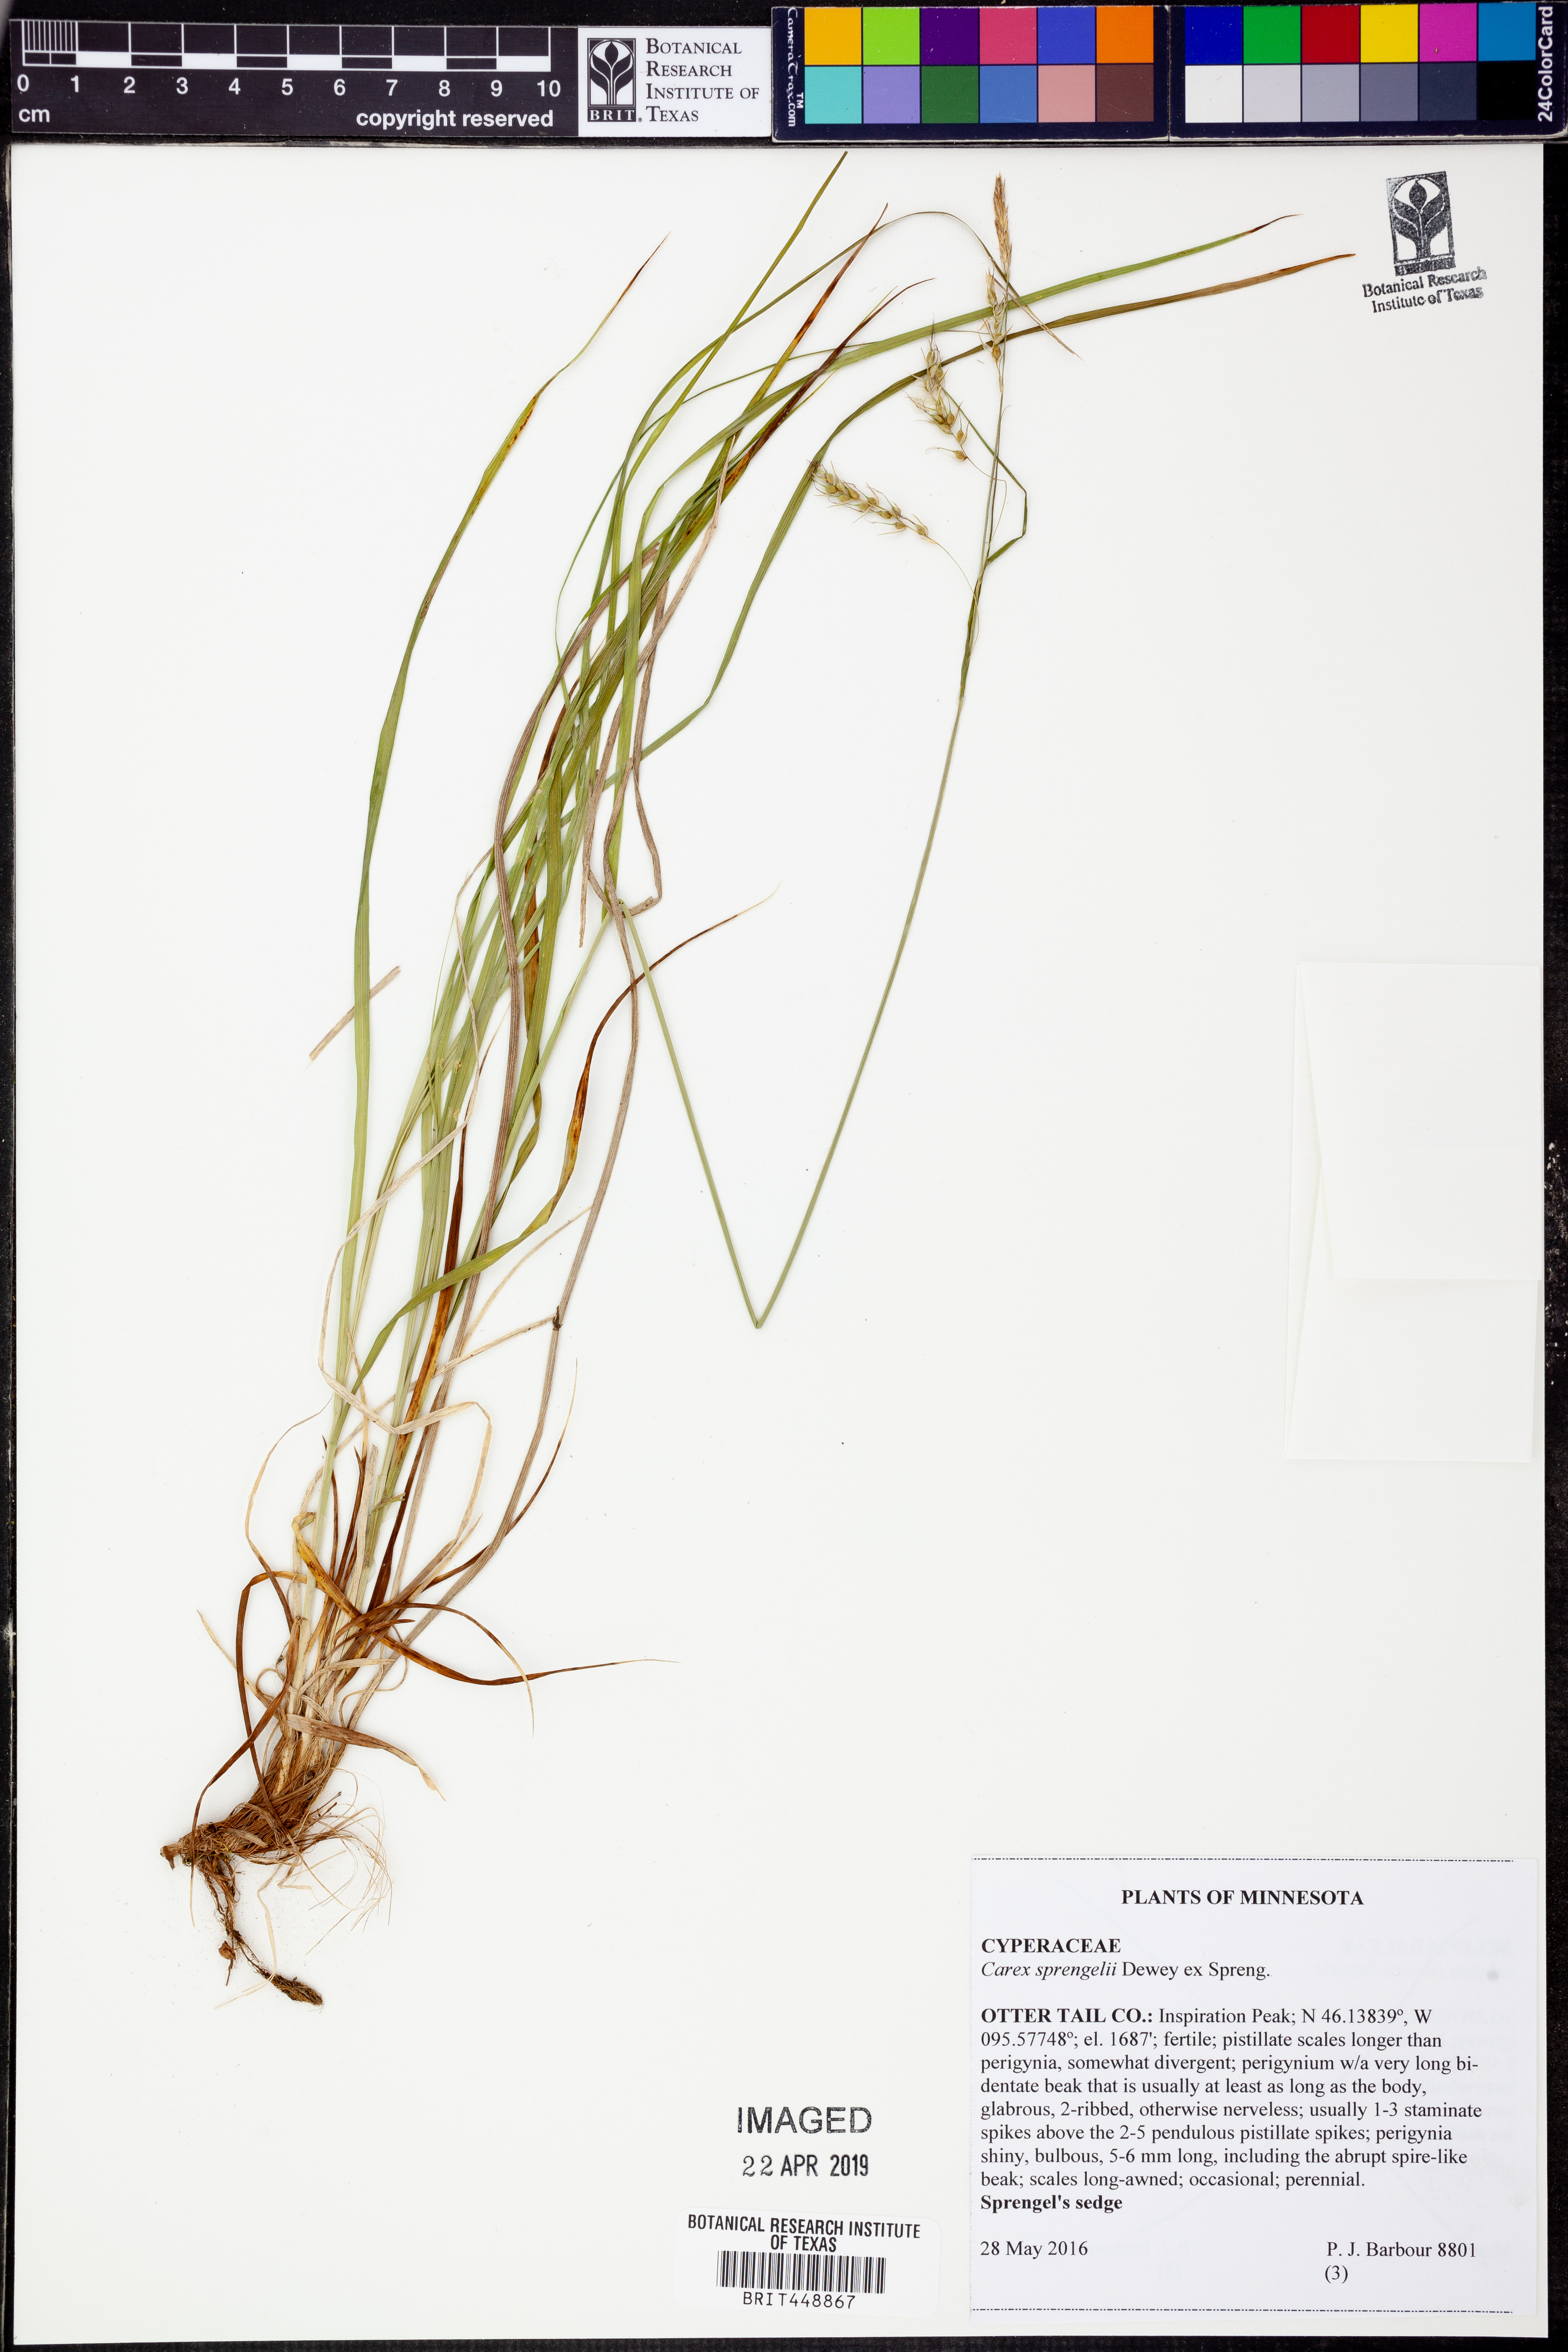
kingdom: Plantae
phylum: Tracheophyta
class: Liliopsida
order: Poales
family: Cyperaceae
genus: Carex
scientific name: Carex sprengelii
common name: Long-beaked sedge
